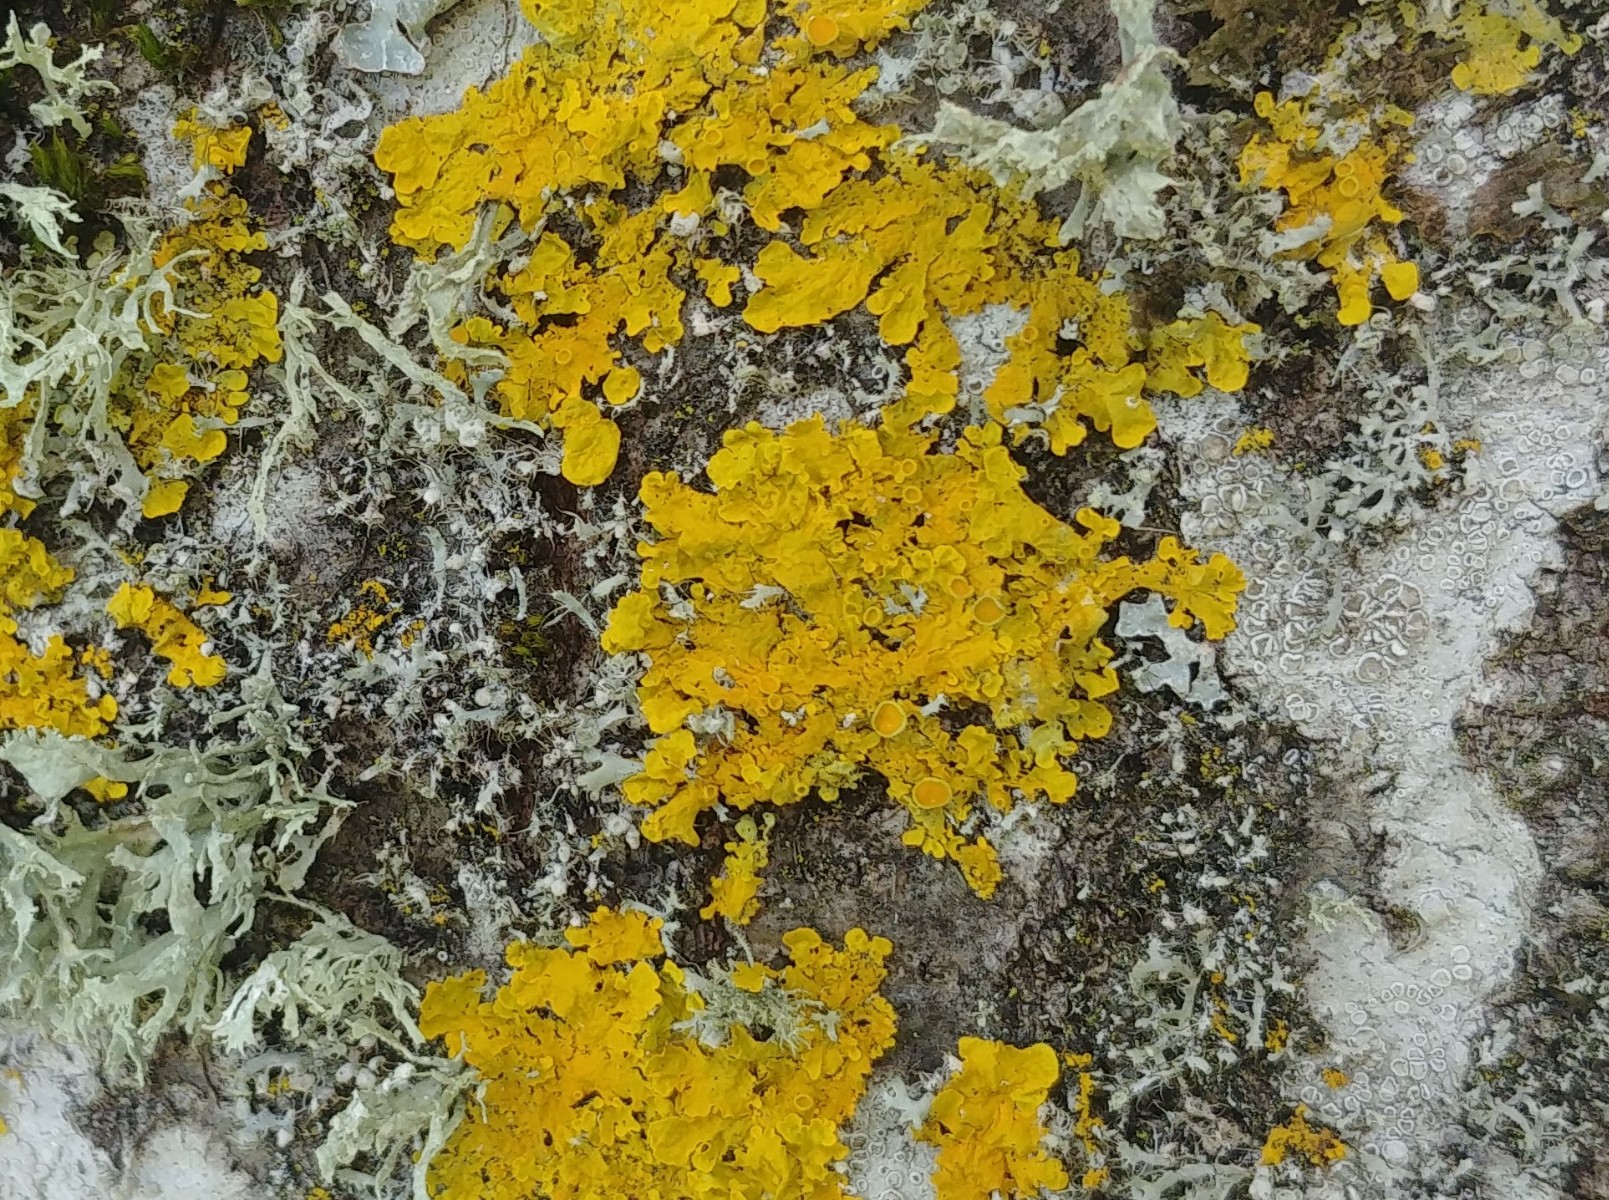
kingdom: Fungi
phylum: Ascomycota
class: Lecanoromycetes
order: Teloschistales
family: Teloschistaceae
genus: Xanthoria
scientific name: Xanthoria parietina
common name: almindelig væggelav
